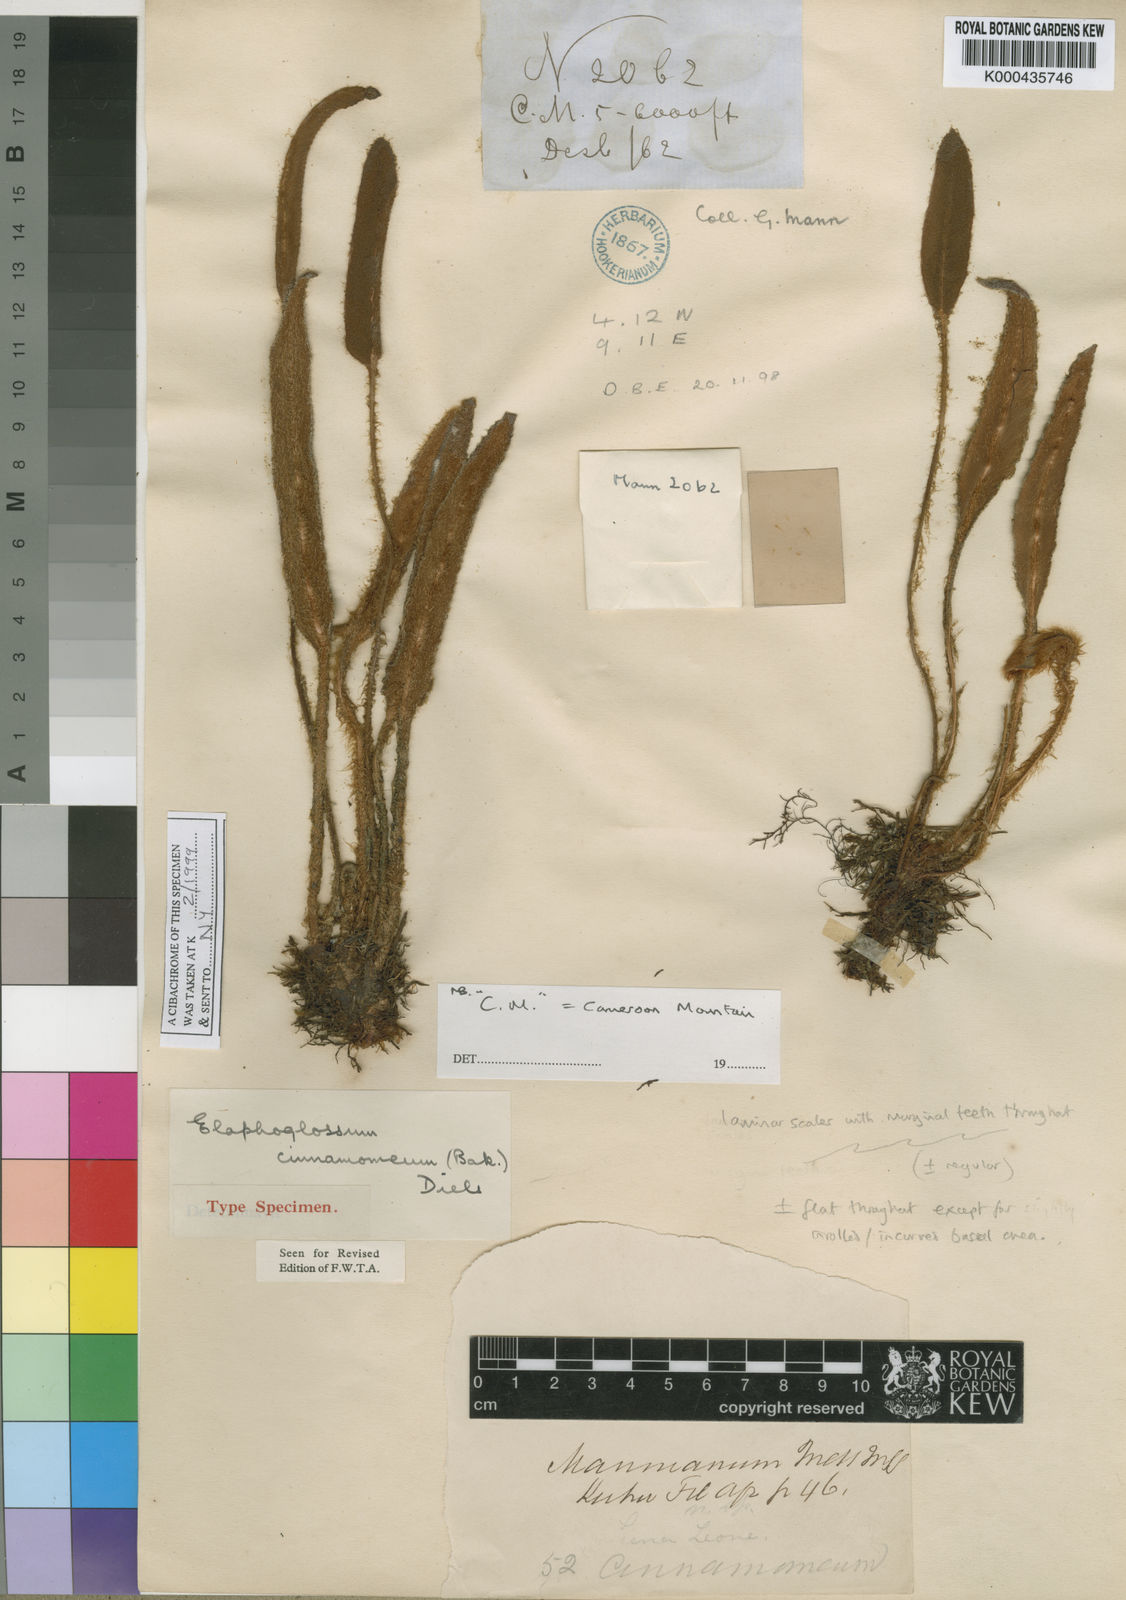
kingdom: Plantae
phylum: Tracheophyta
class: Polypodiopsida
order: Polypodiales
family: Dryopteridaceae
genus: Elaphoglossum
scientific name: Elaphoglossum cinnamomeum
